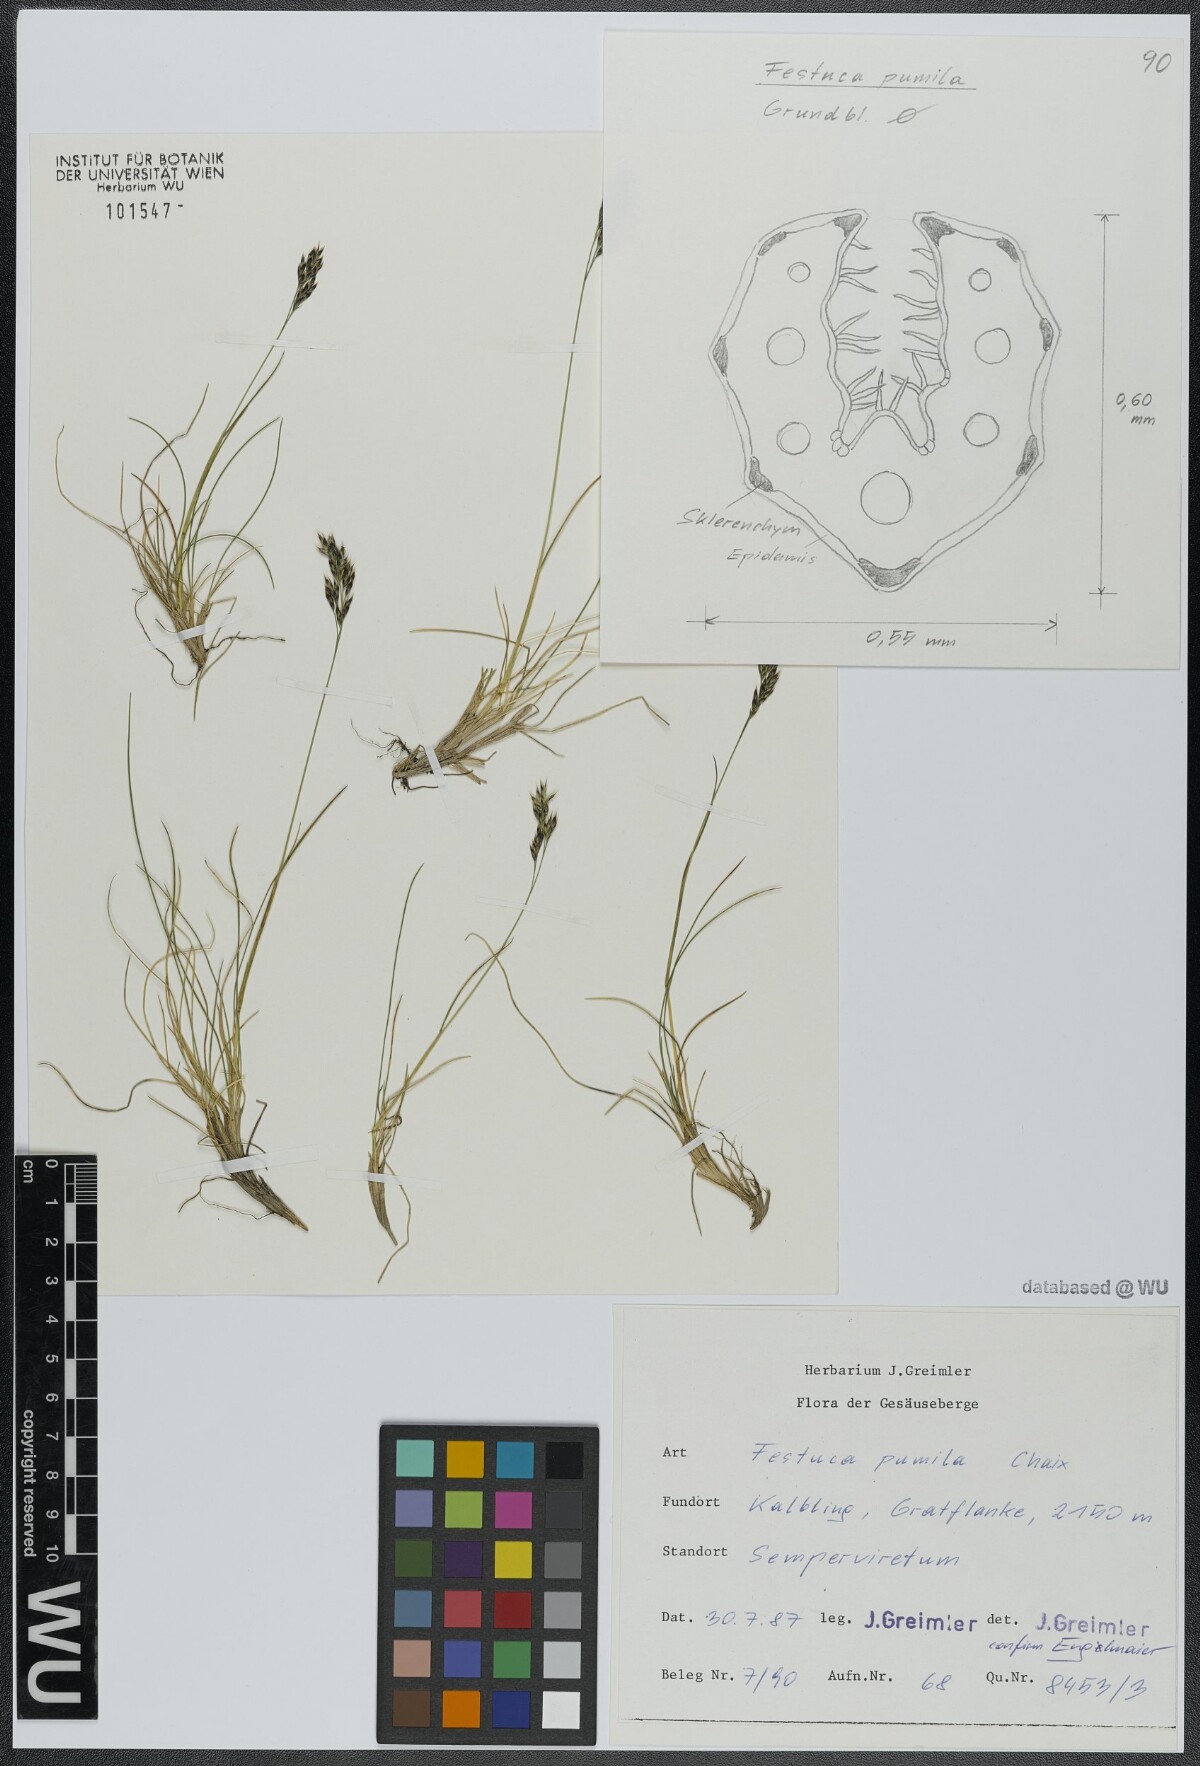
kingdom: Plantae
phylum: Tracheophyta
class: Liliopsida
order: Poales
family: Poaceae
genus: Festuca
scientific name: Festuca quadriflora
